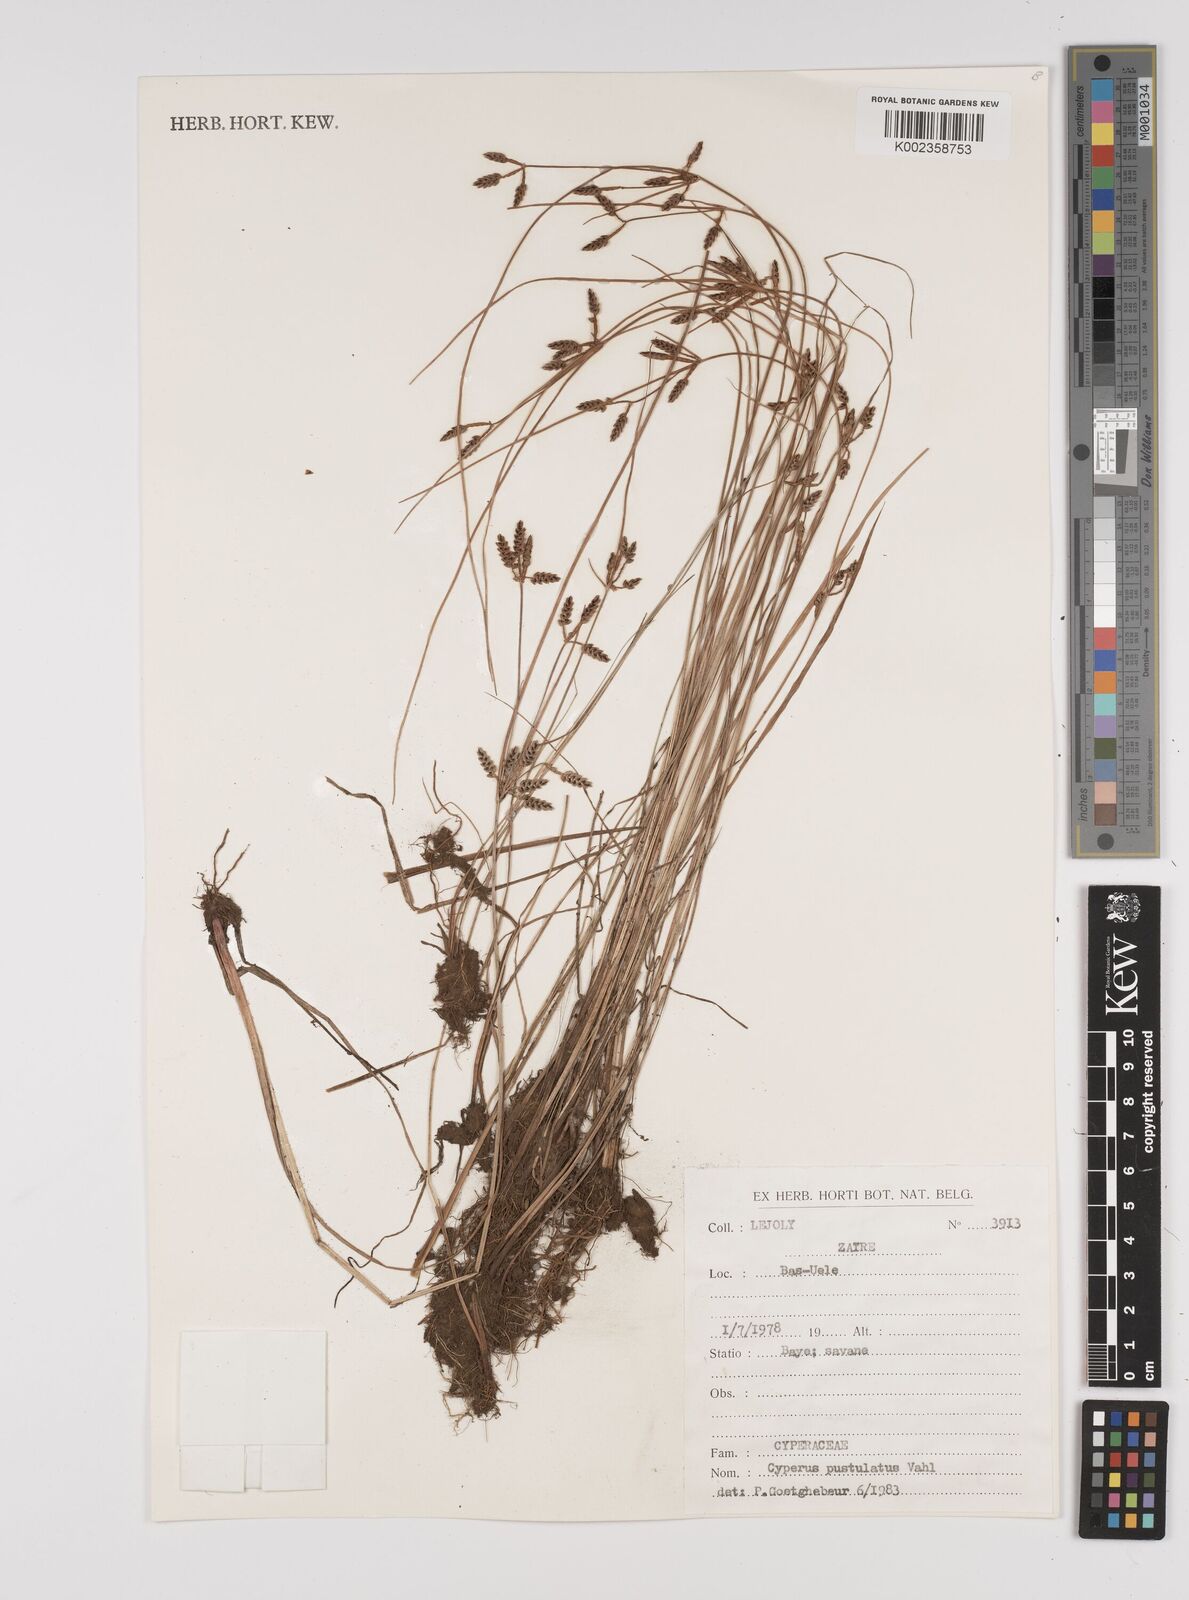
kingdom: Plantae
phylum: Tracheophyta
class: Liliopsida
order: Poales
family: Cyperaceae
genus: Cyperus
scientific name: Cyperus pustulatus
